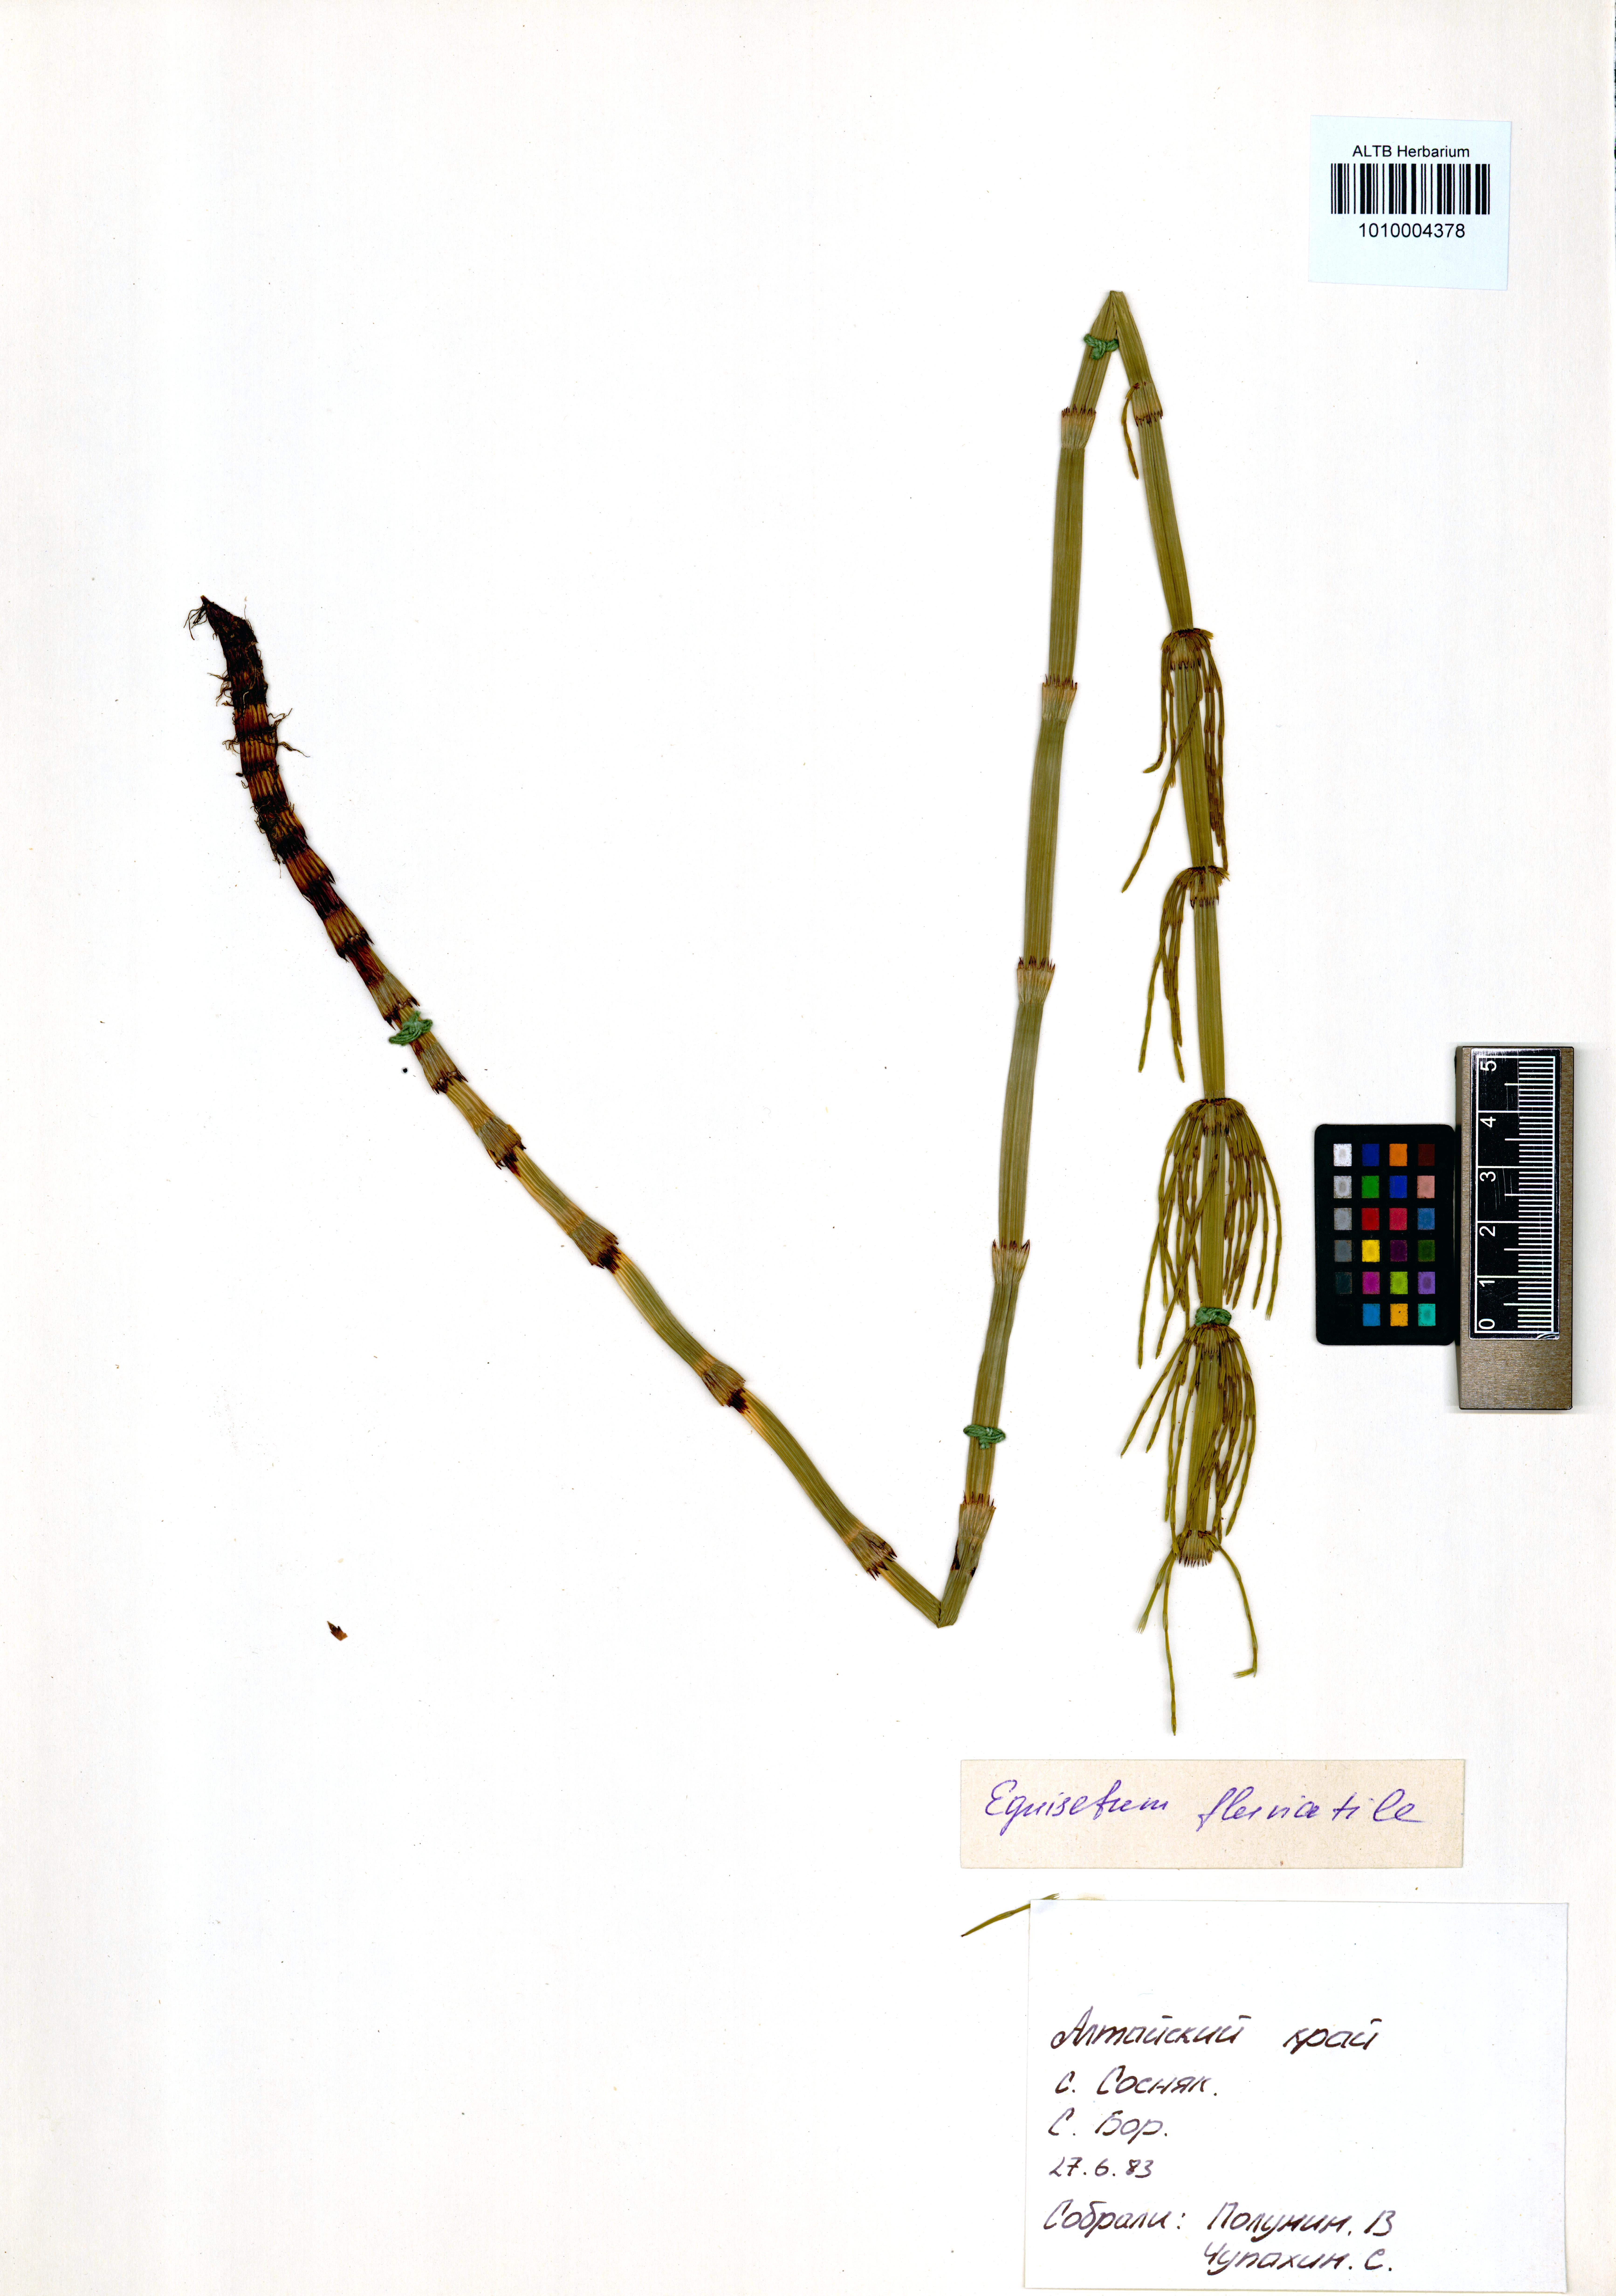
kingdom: Plantae
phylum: Tracheophyta
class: Polypodiopsida
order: Equisetales
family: Equisetaceae
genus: Equisetum
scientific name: Equisetum fluviatile
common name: Water horsetail
